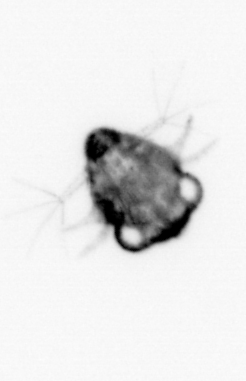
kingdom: Animalia
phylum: Arthropoda
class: Malacostraca
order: Decapoda
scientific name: Decapoda
